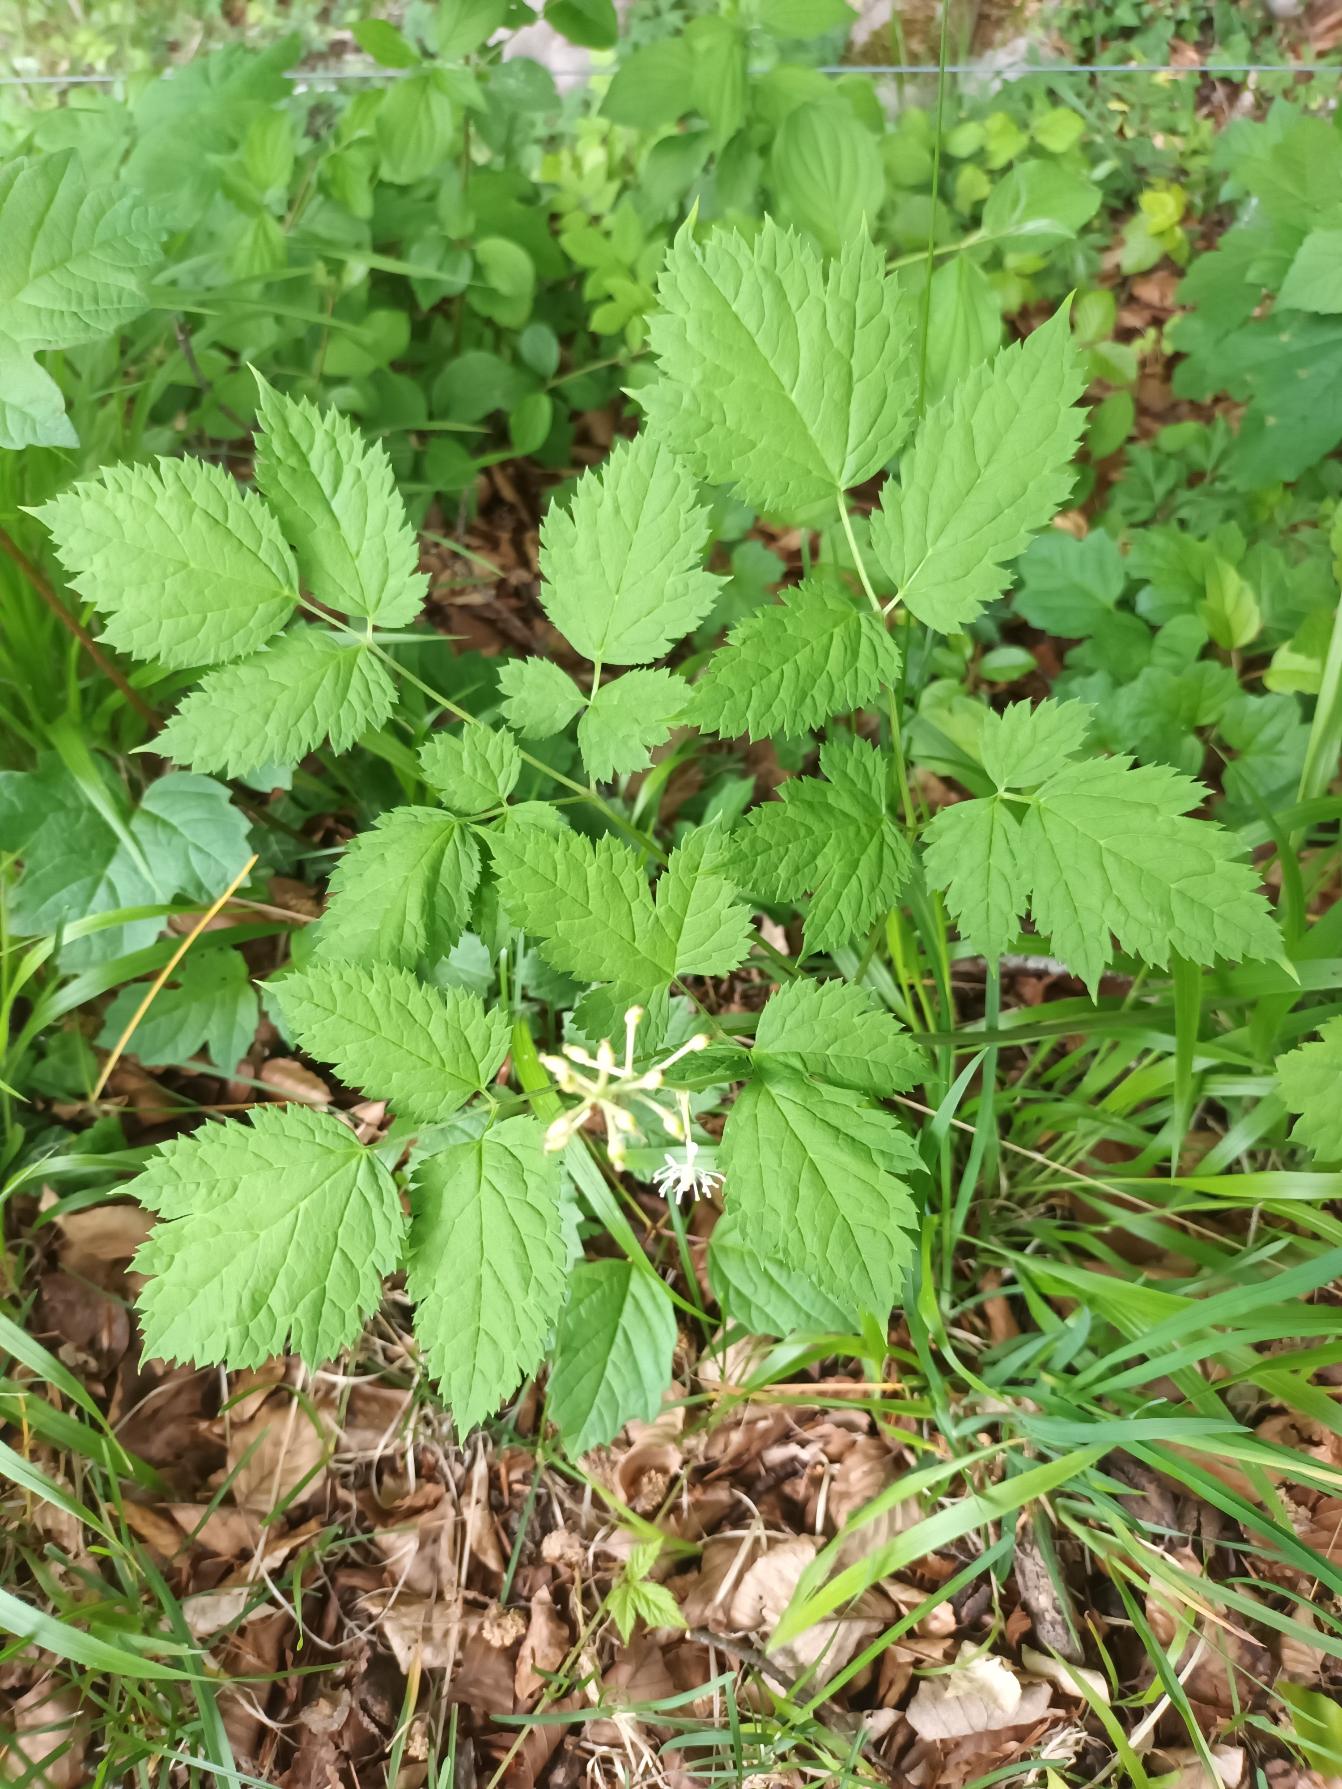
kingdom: Plantae
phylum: Tracheophyta
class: Magnoliopsida
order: Ranunculales
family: Ranunculaceae
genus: Actaea
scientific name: Actaea spicata
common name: Druemunke
